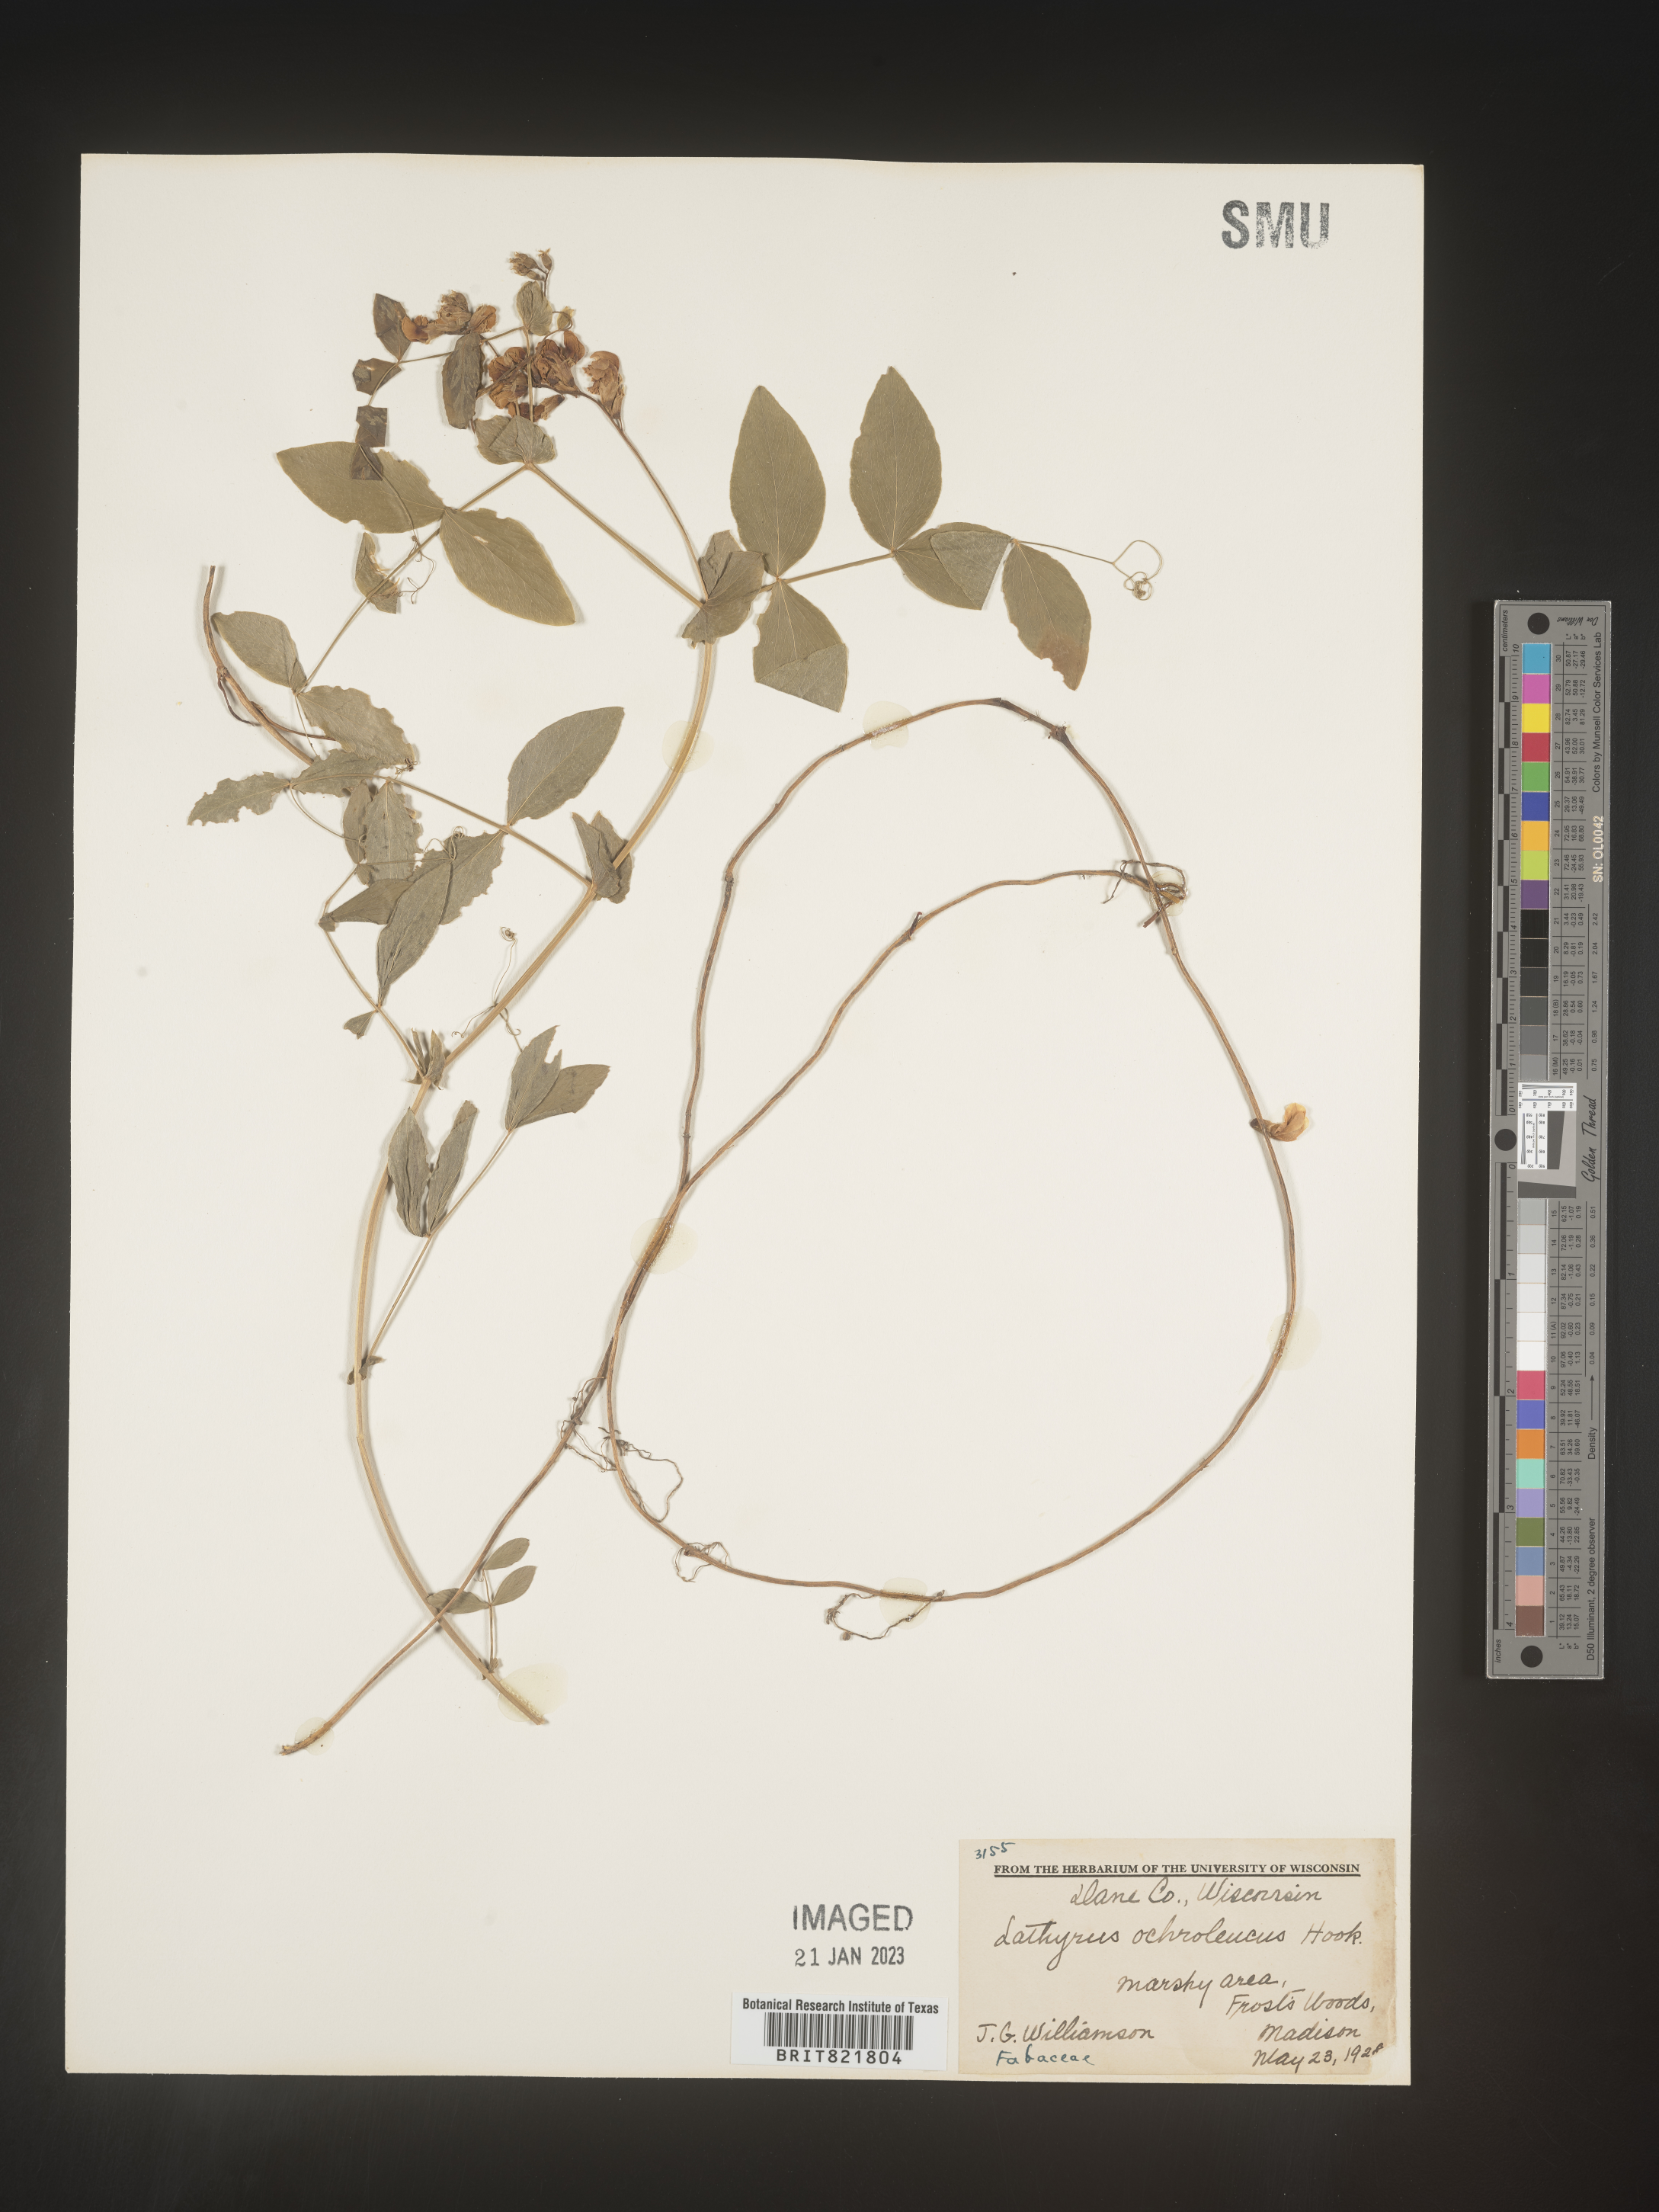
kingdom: Plantae
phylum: Tracheophyta
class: Magnoliopsida
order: Fabales
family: Fabaceae
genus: Lathyrus
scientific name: Lathyrus
